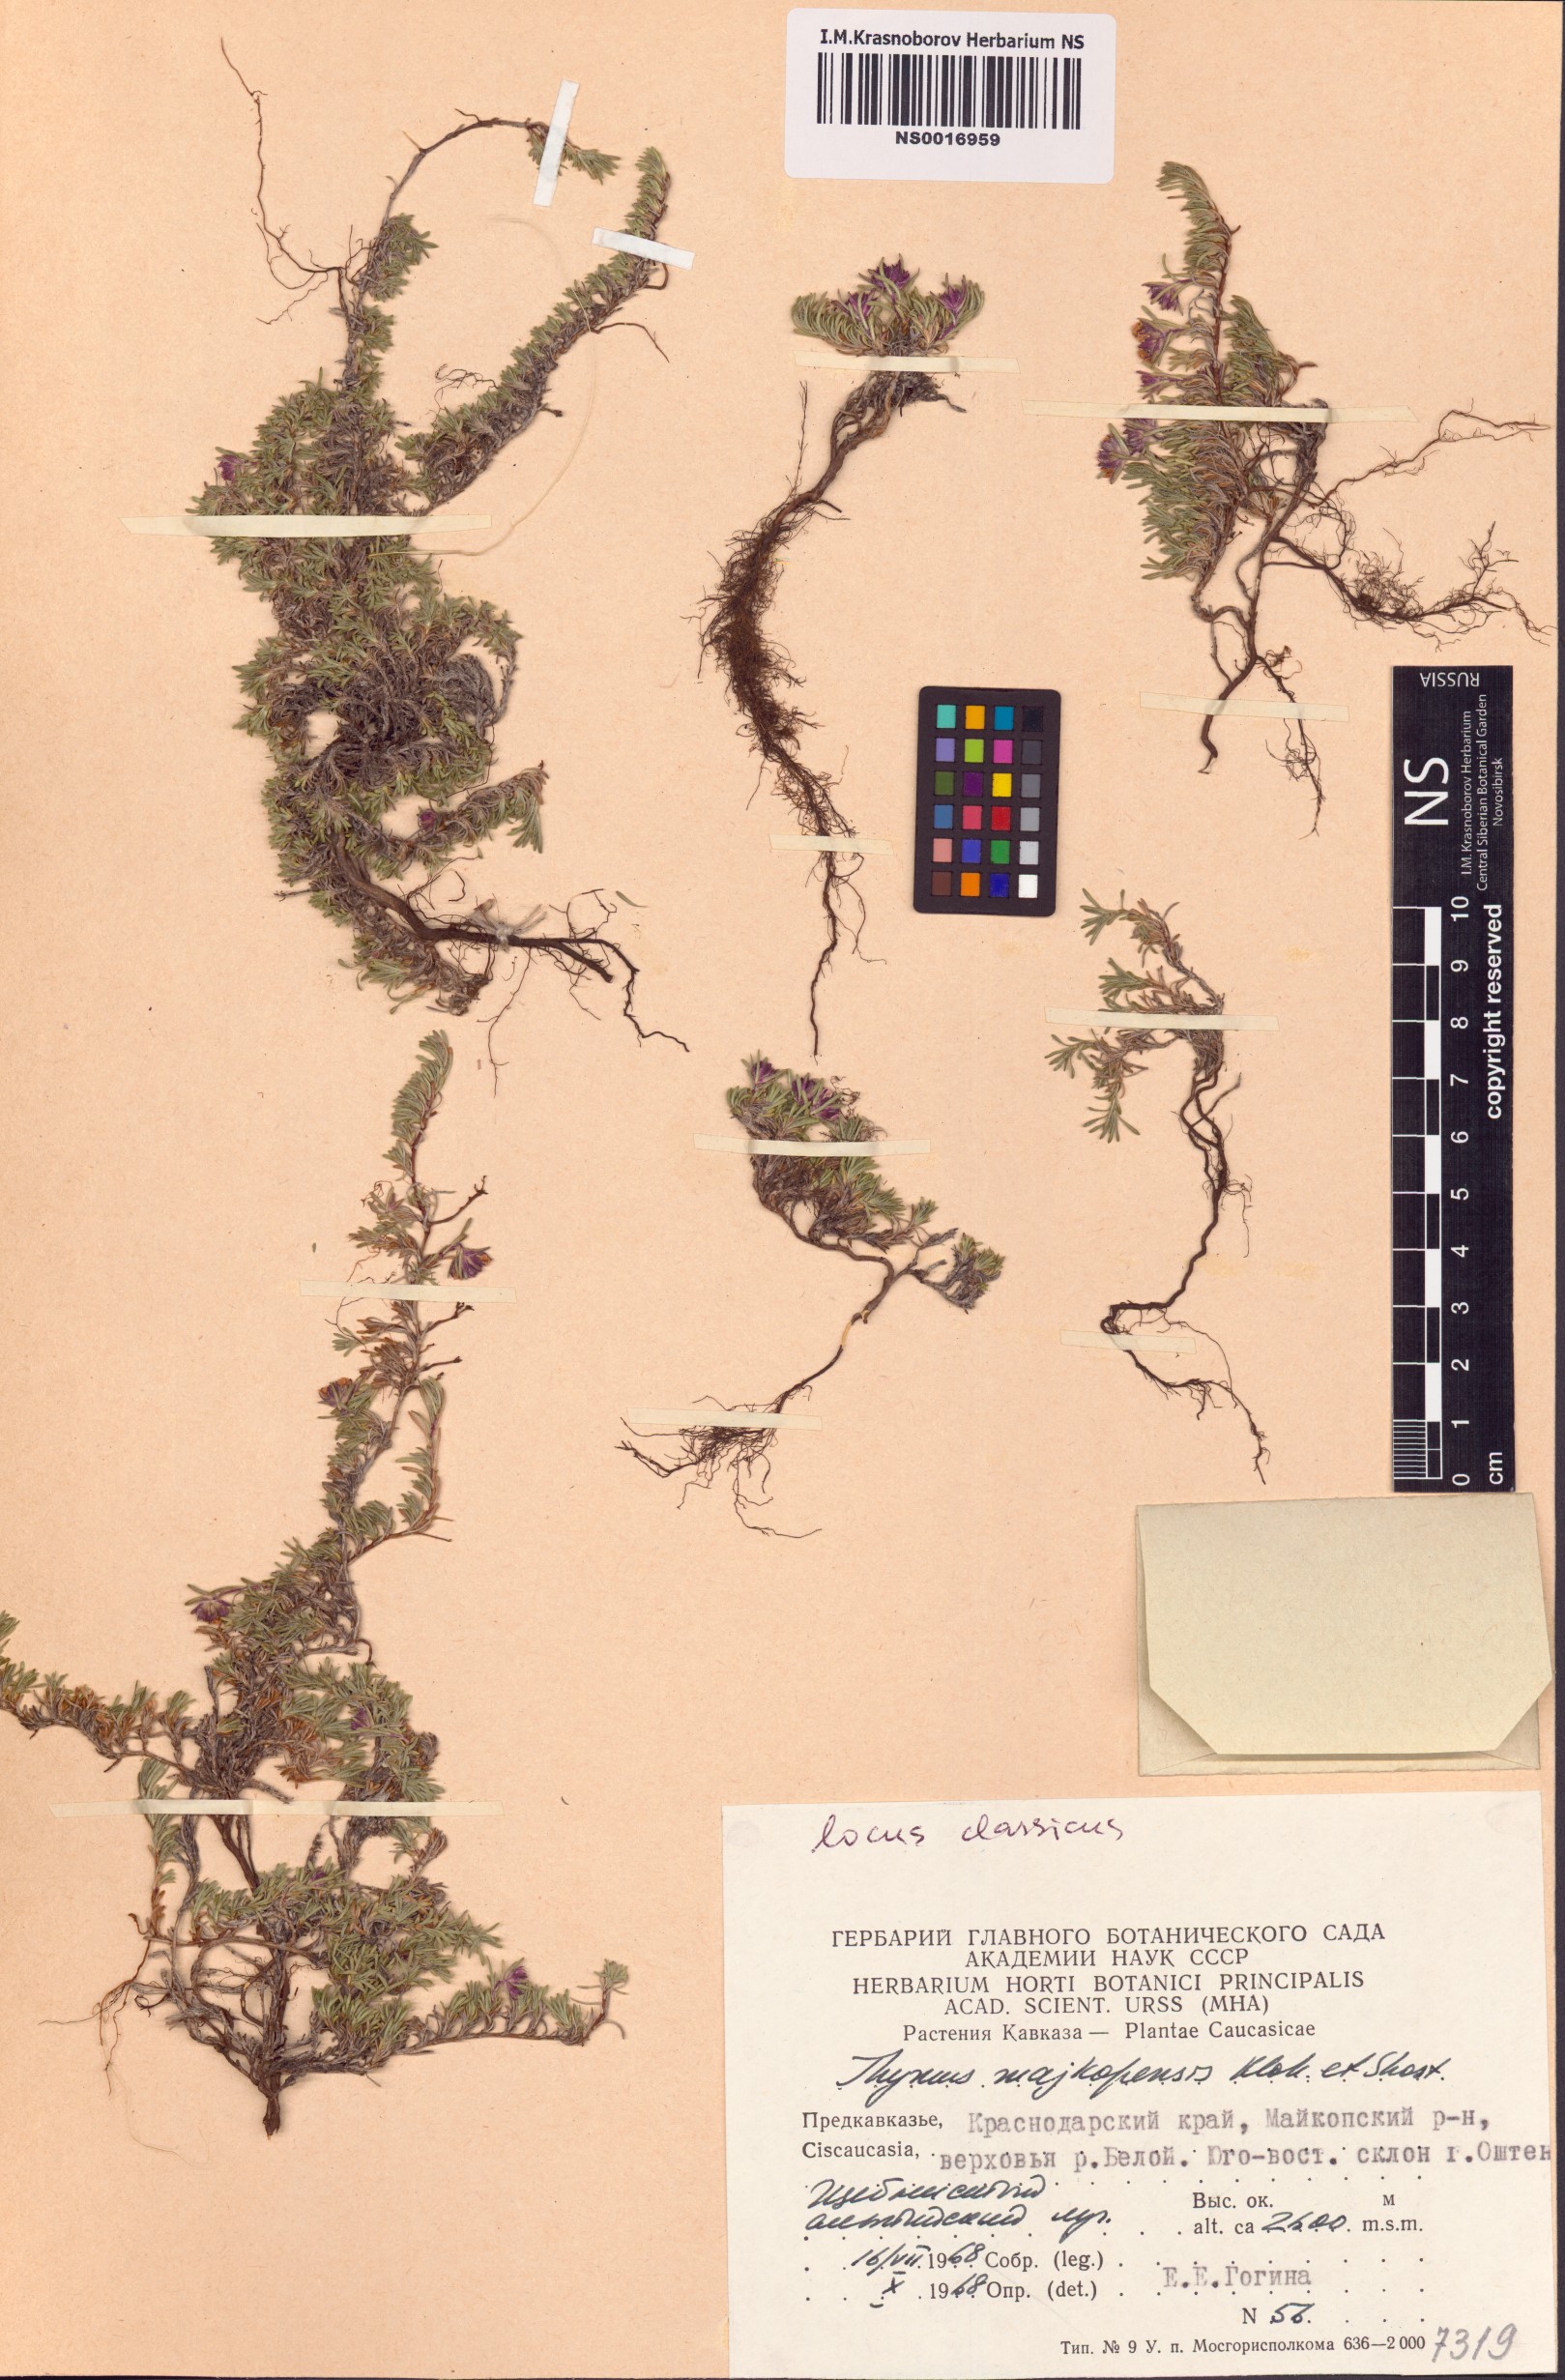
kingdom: Plantae
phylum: Tracheophyta
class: Magnoliopsida
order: Lamiales
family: Lamiaceae
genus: Thymus
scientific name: Thymus majkopiensis
